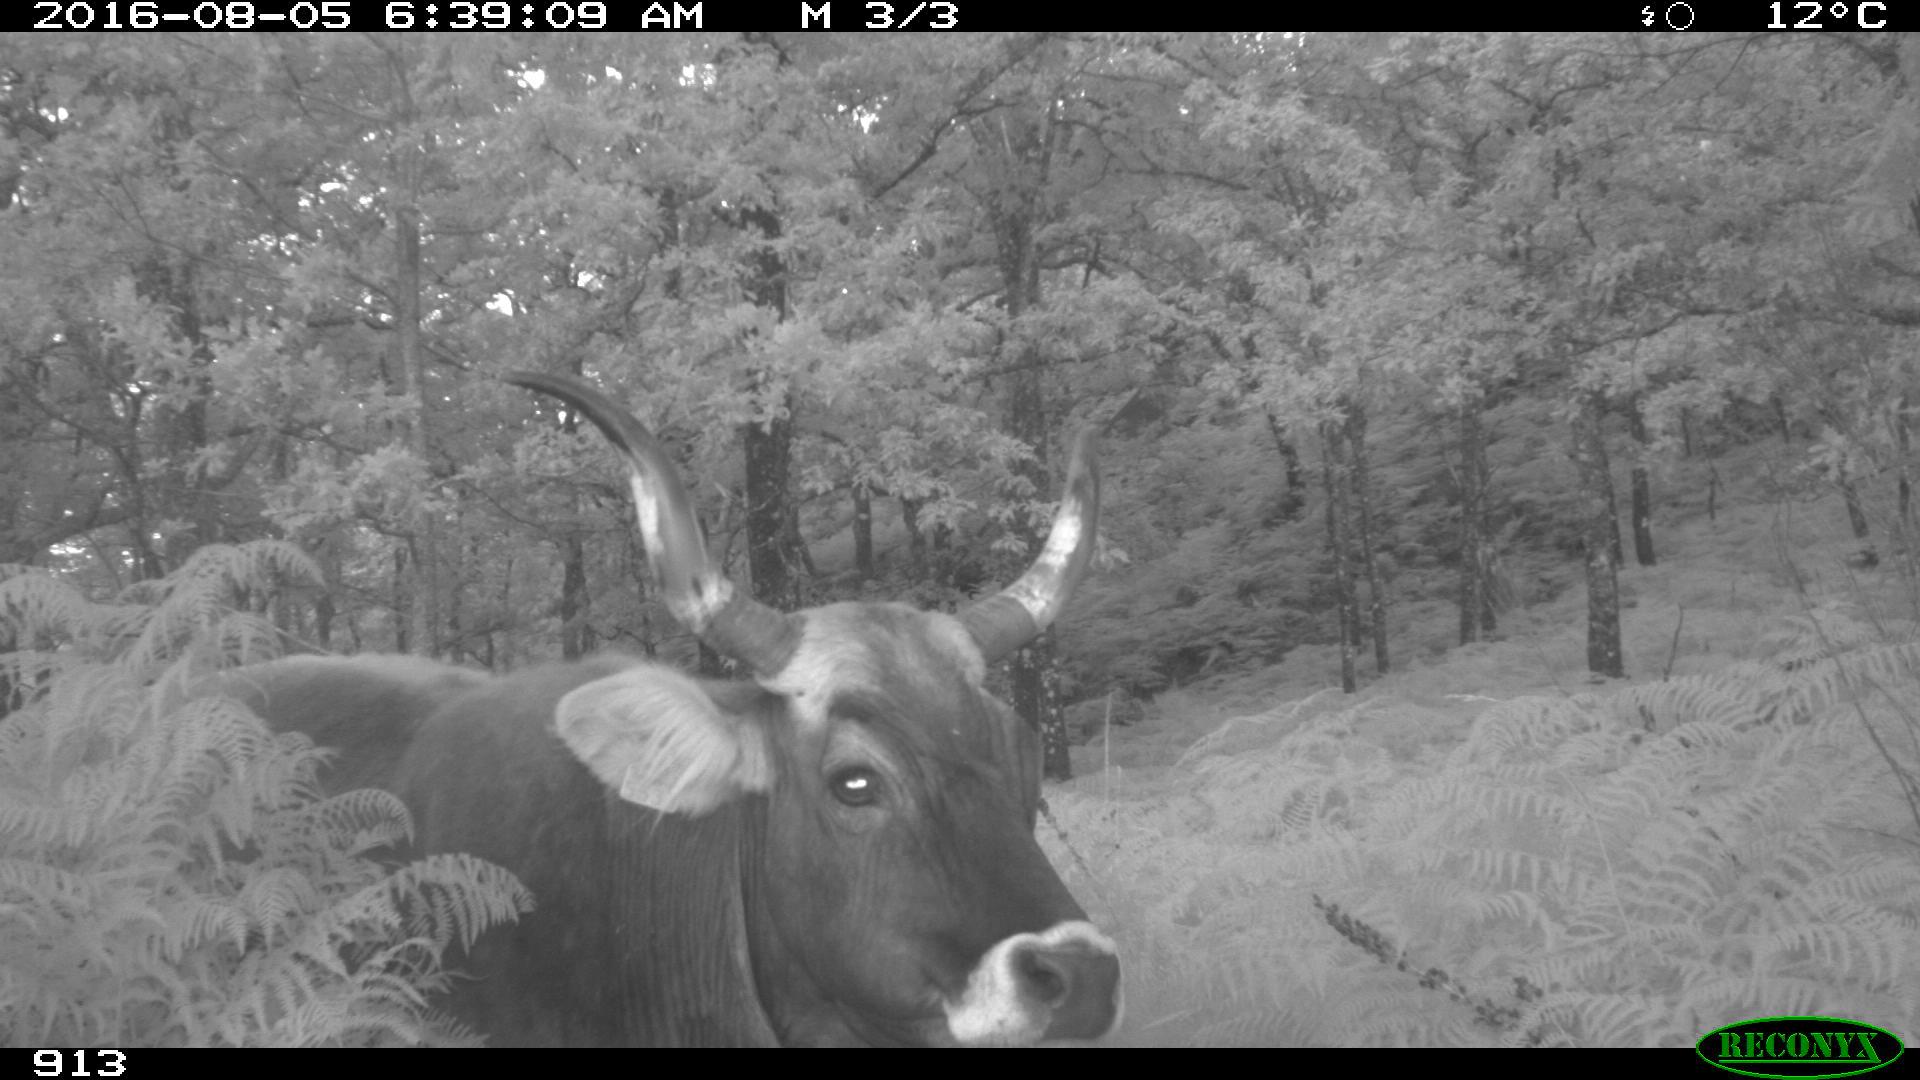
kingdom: Animalia
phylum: Chordata
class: Mammalia
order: Artiodactyla
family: Bovidae
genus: Bos
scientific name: Bos taurus
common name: Domesticated cattle
